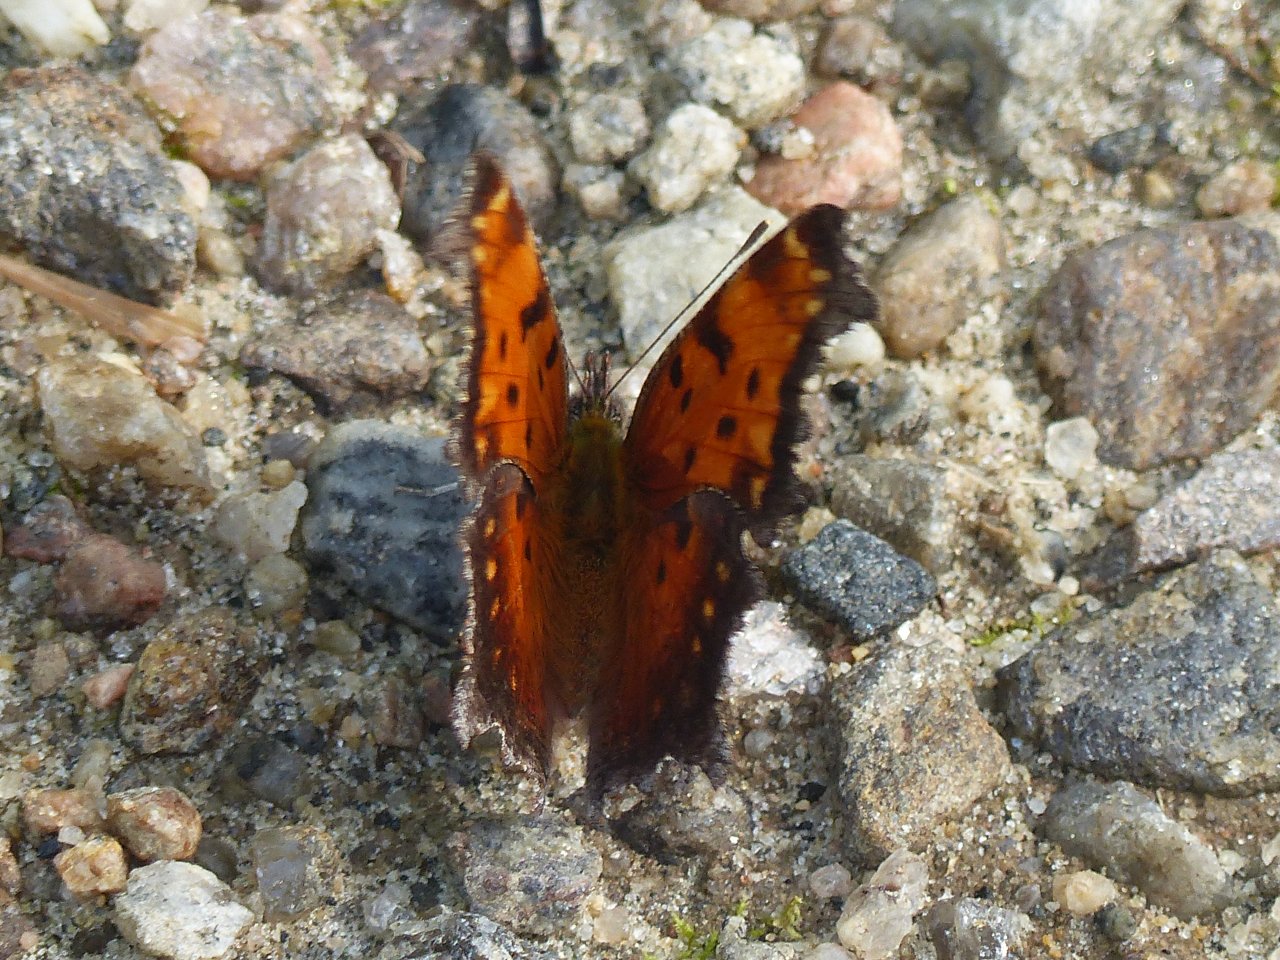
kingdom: Animalia
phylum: Arthropoda
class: Insecta
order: Lepidoptera
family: Nymphalidae
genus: Polygonia
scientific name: Polygonia progne
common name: Gray Comma
